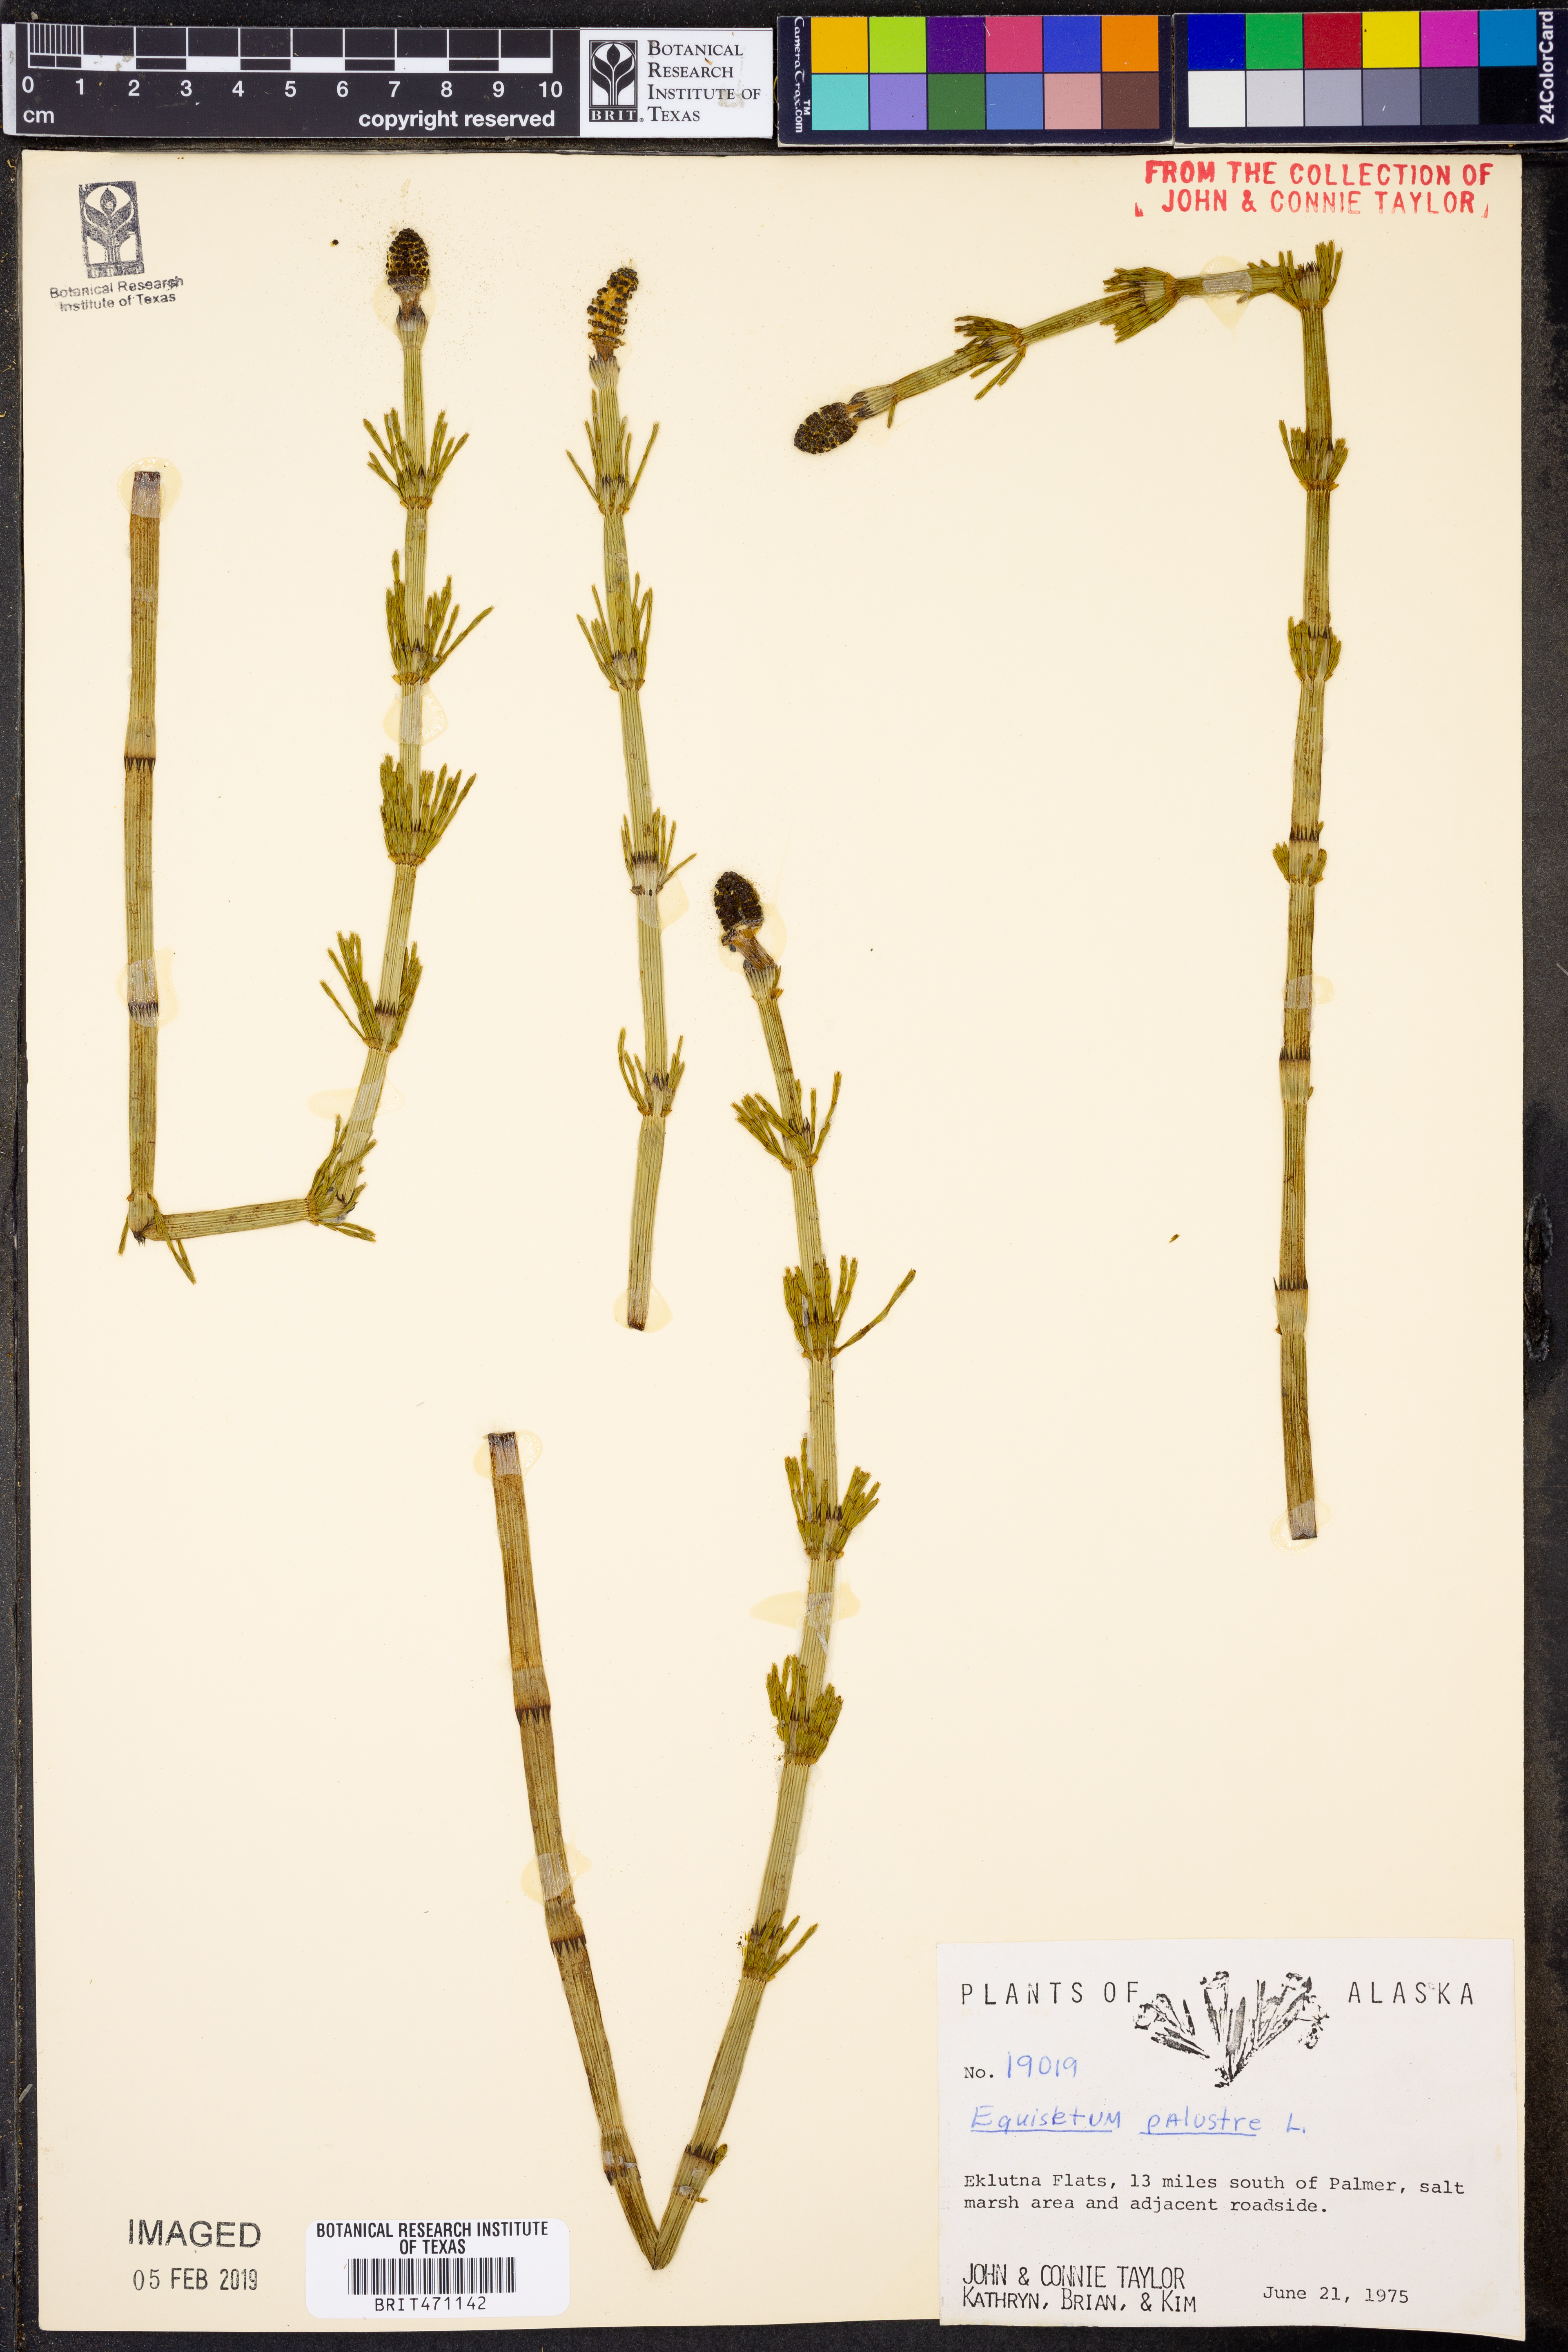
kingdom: Plantae
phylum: Tracheophyta
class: Polypodiopsida
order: Equisetales
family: Equisetaceae
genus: Equisetum
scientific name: Equisetum palustre
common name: Marsh horsetail
